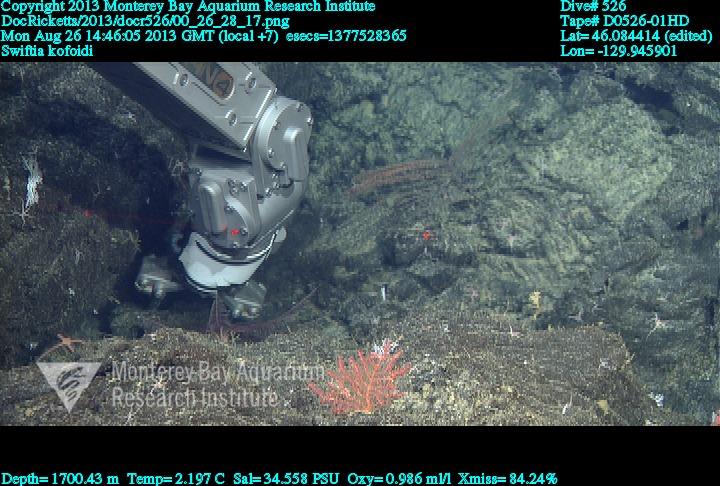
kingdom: Animalia
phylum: Cnidaria
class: Anthozoa
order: Malacalcyonacea
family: Gorgoniidae
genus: Callistephanus
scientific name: Callistephanus kofoidi
